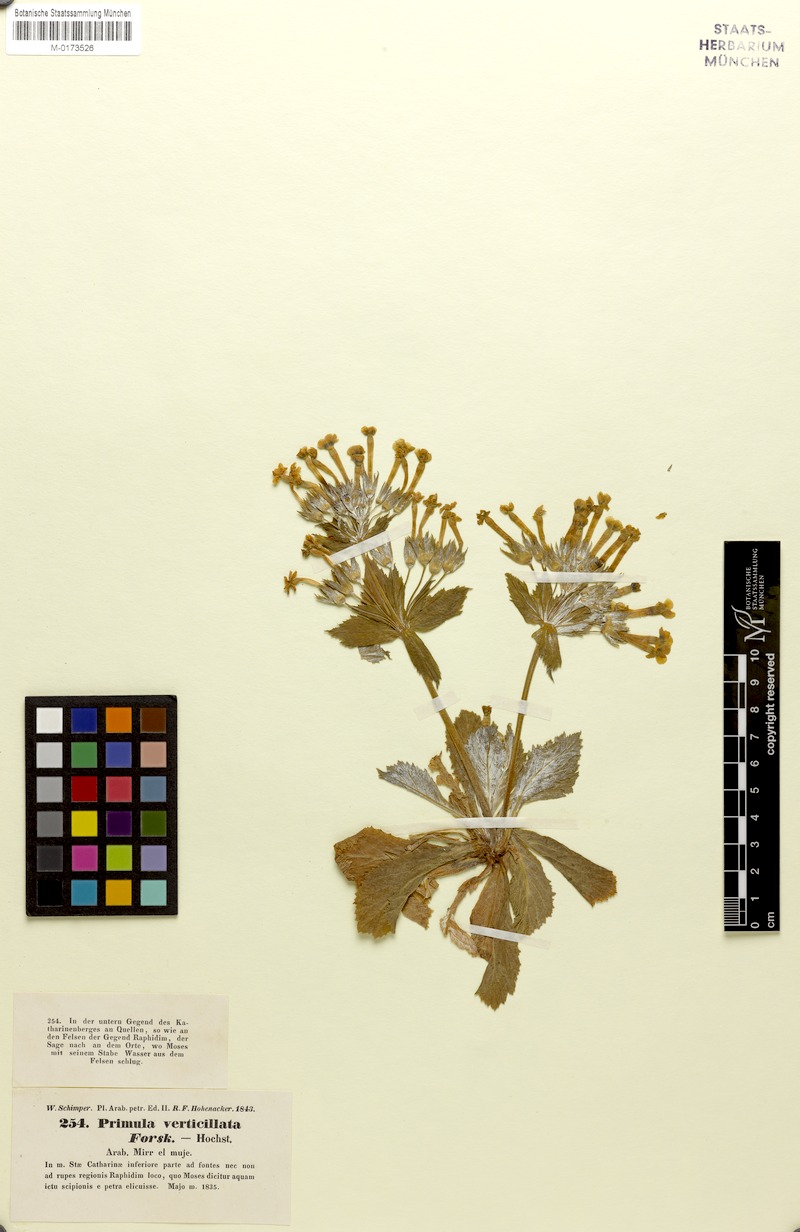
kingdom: Plantae
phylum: Tracheophyta
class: Magnoliopsida
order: Ericales
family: Primulaceae
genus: Evotrochis
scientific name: Evotrochis verticillata
